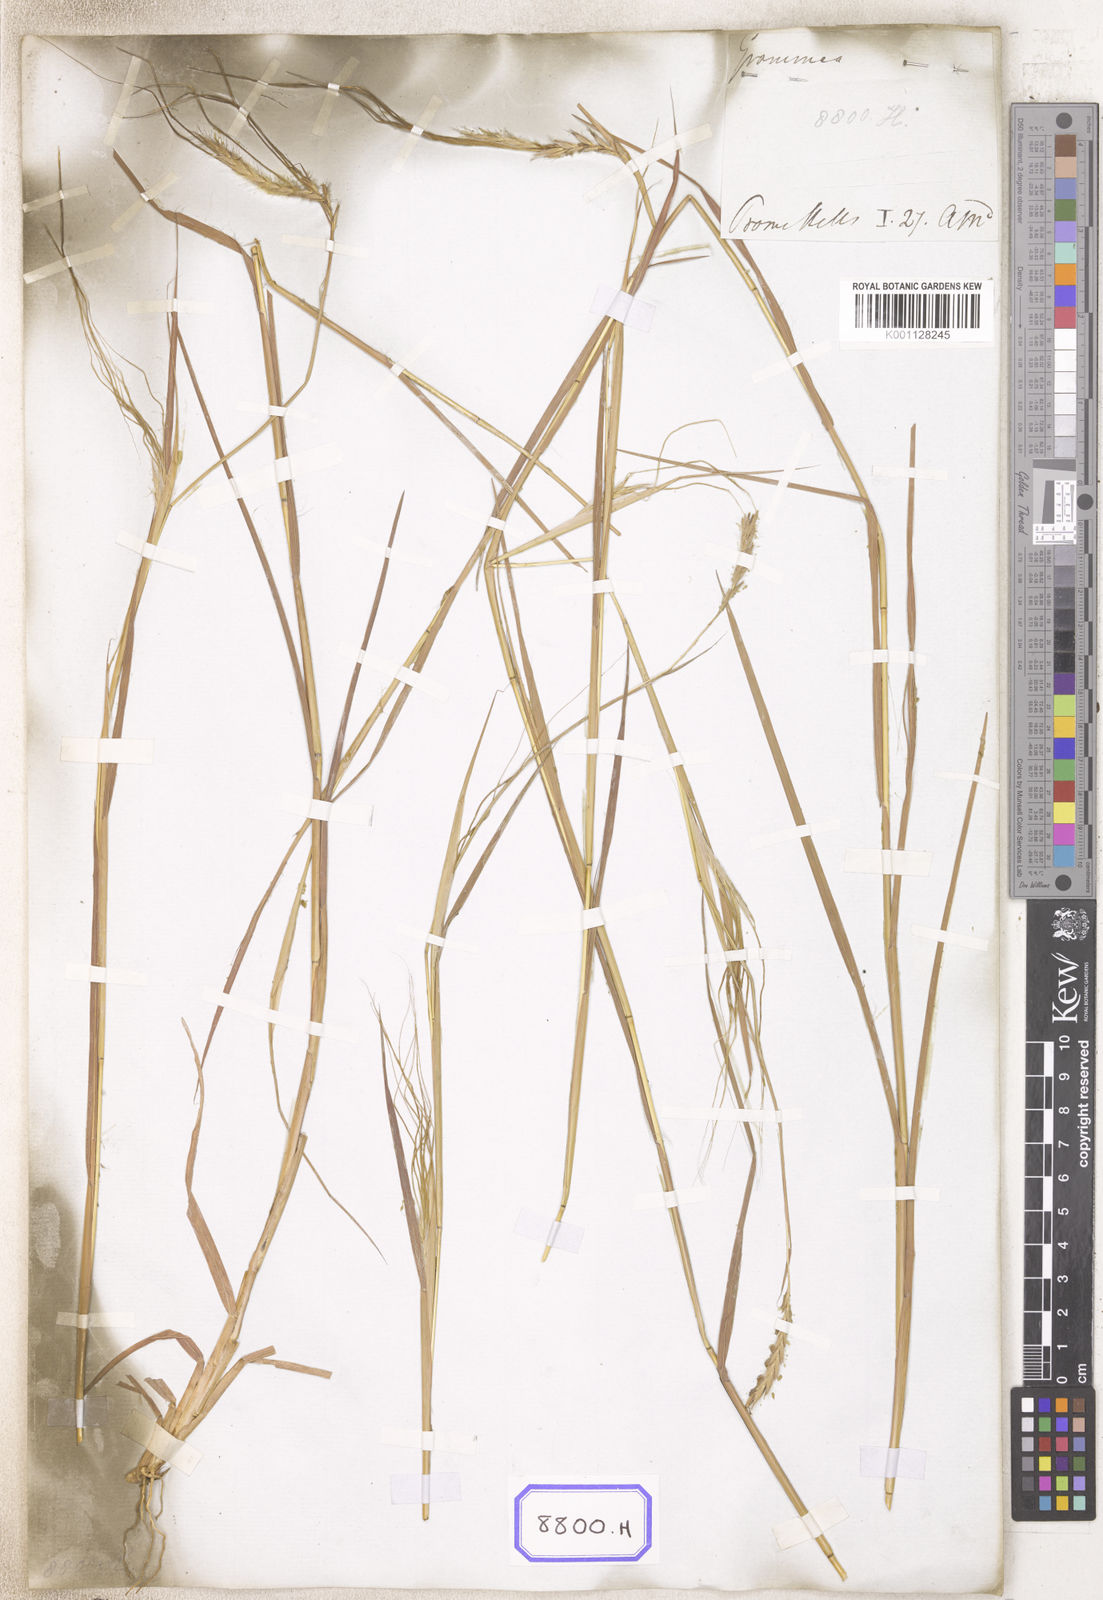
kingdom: Plantae
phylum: Tracheophyta
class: Liliopsida
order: Poales
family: Poaceae
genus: Heteropogon
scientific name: Heteropogon contortus
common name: Tanglehead
